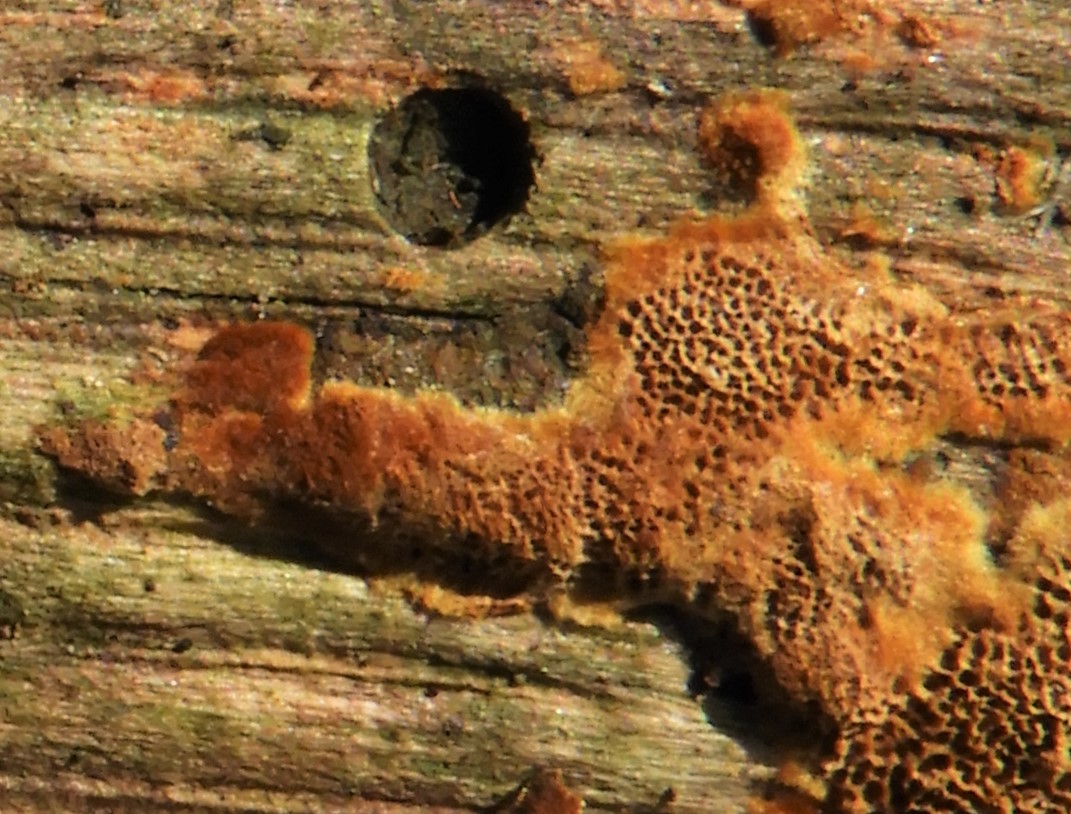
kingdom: Fungi
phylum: Basidiomycota
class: Agaricomycetes
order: Hymenochaetales
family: Hymenochaetaceae
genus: Fuscoporia
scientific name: Fuscoporia
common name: Ildporesvamp
